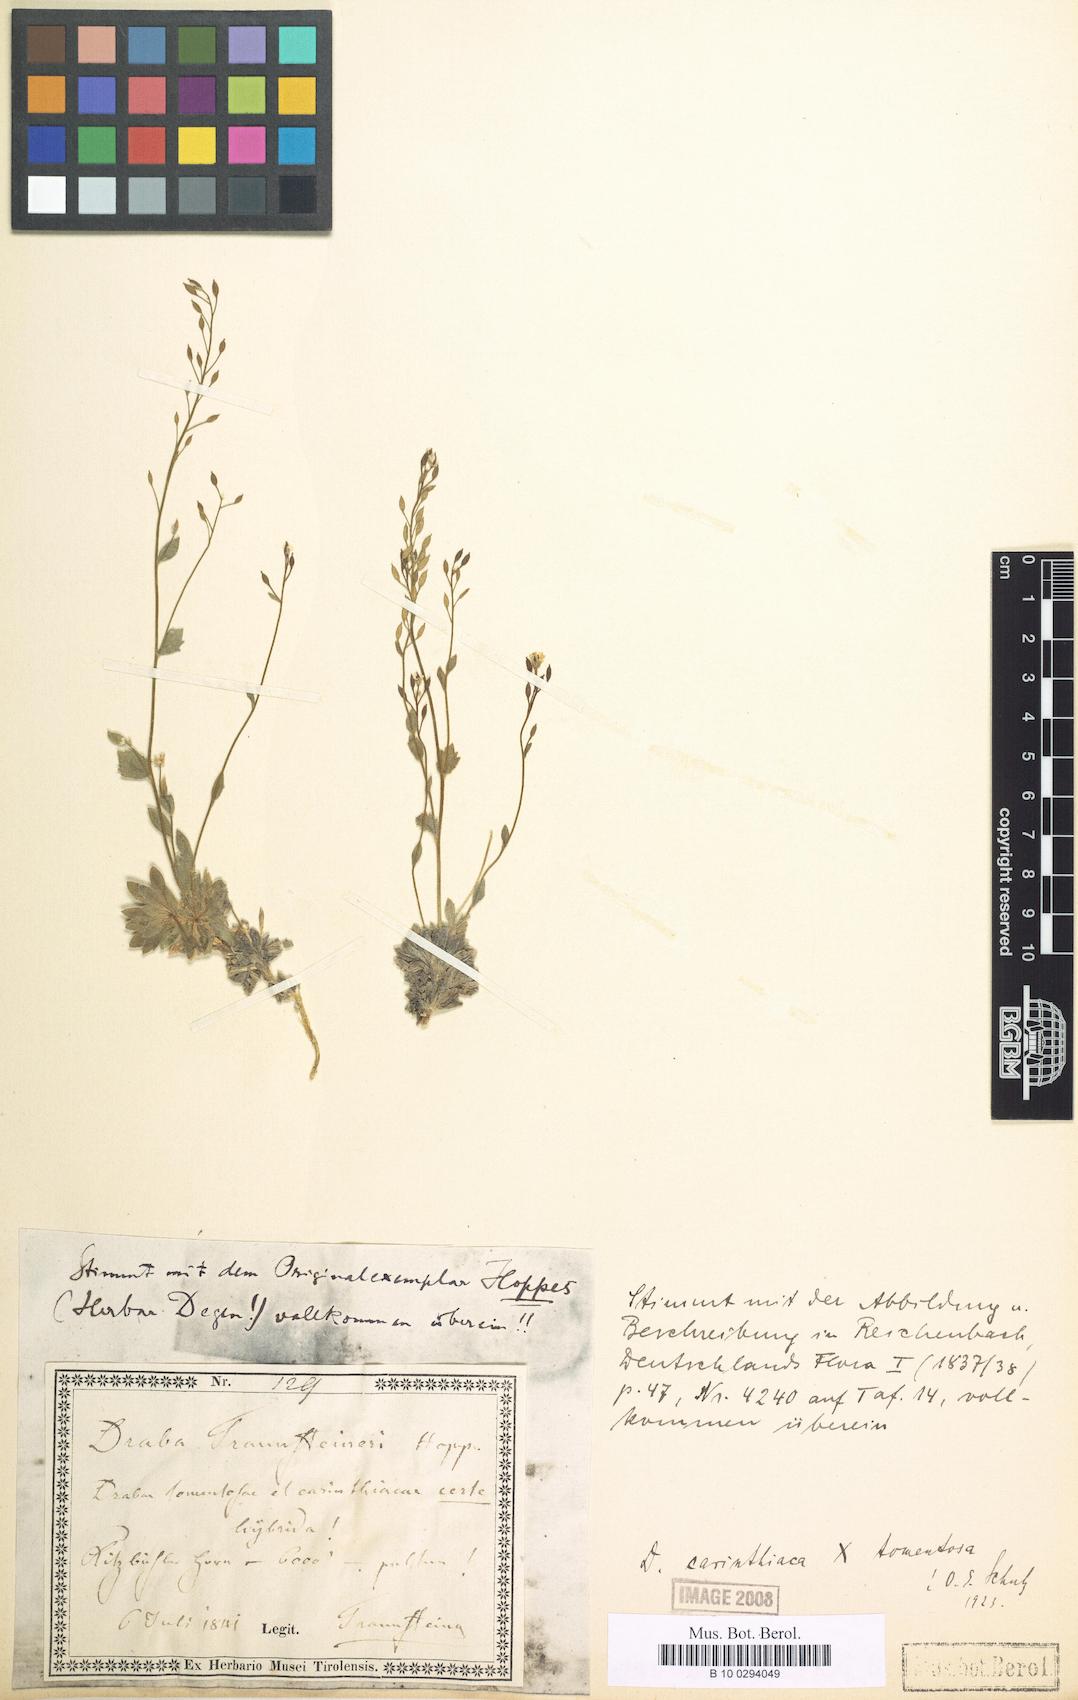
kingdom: Plantae
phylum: Tracheophyta
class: Magnoliopsida
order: Brassicales
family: Brassicaceae
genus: Draba
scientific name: Draba siliquosa
